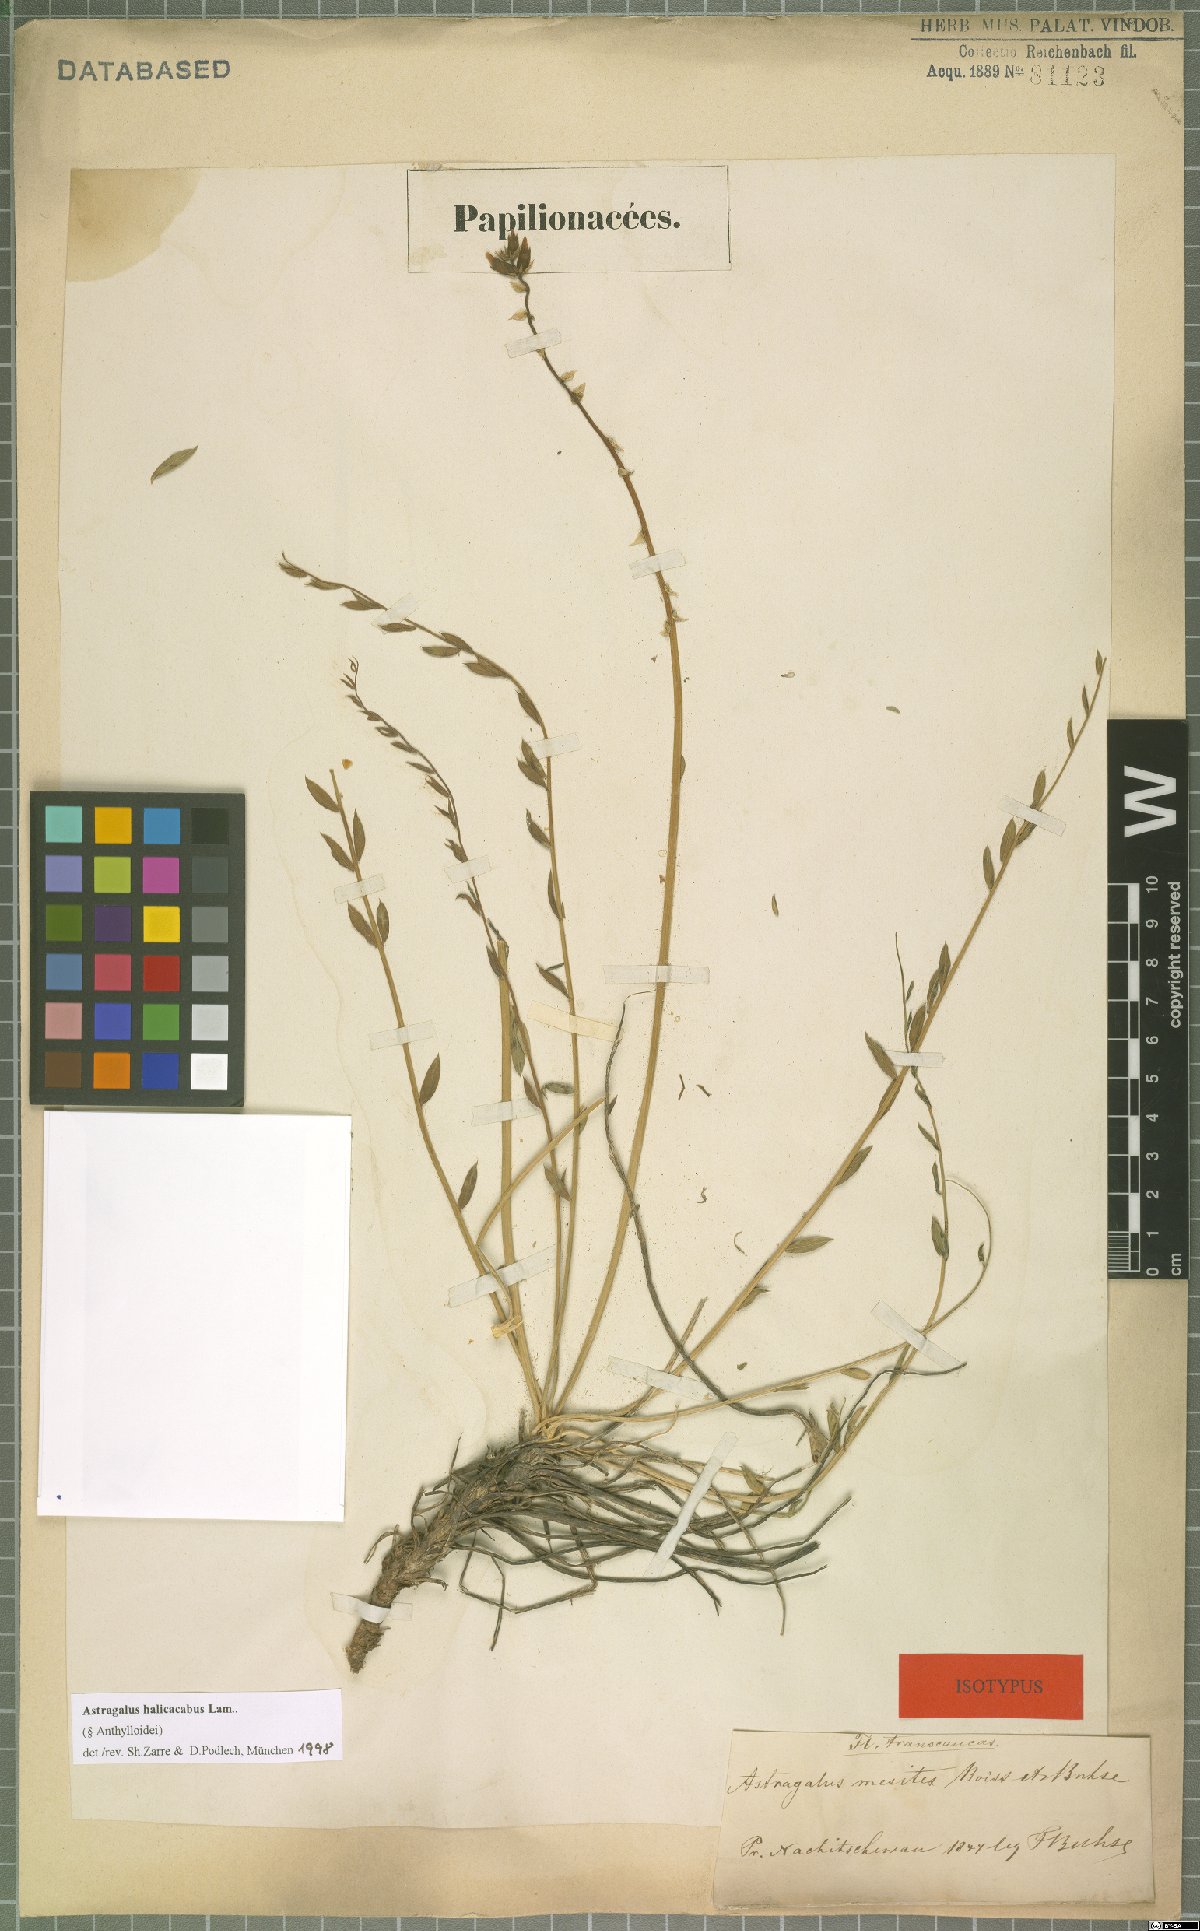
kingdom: Plantae
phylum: Tracheophyta
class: Magnoliopsida
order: Fabales
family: Fabaceae
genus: Astragalus
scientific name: Astragalus halicacabus
